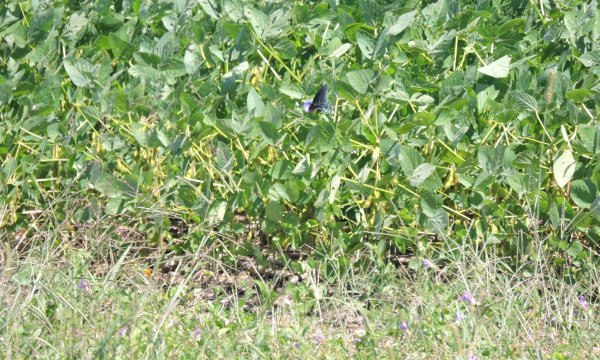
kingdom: Animalia
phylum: Arthropoda
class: Insecta
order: Lepidoptera
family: Papilionidae
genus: Battus
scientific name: Battus philenor
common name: Pipevine Swallowtail
